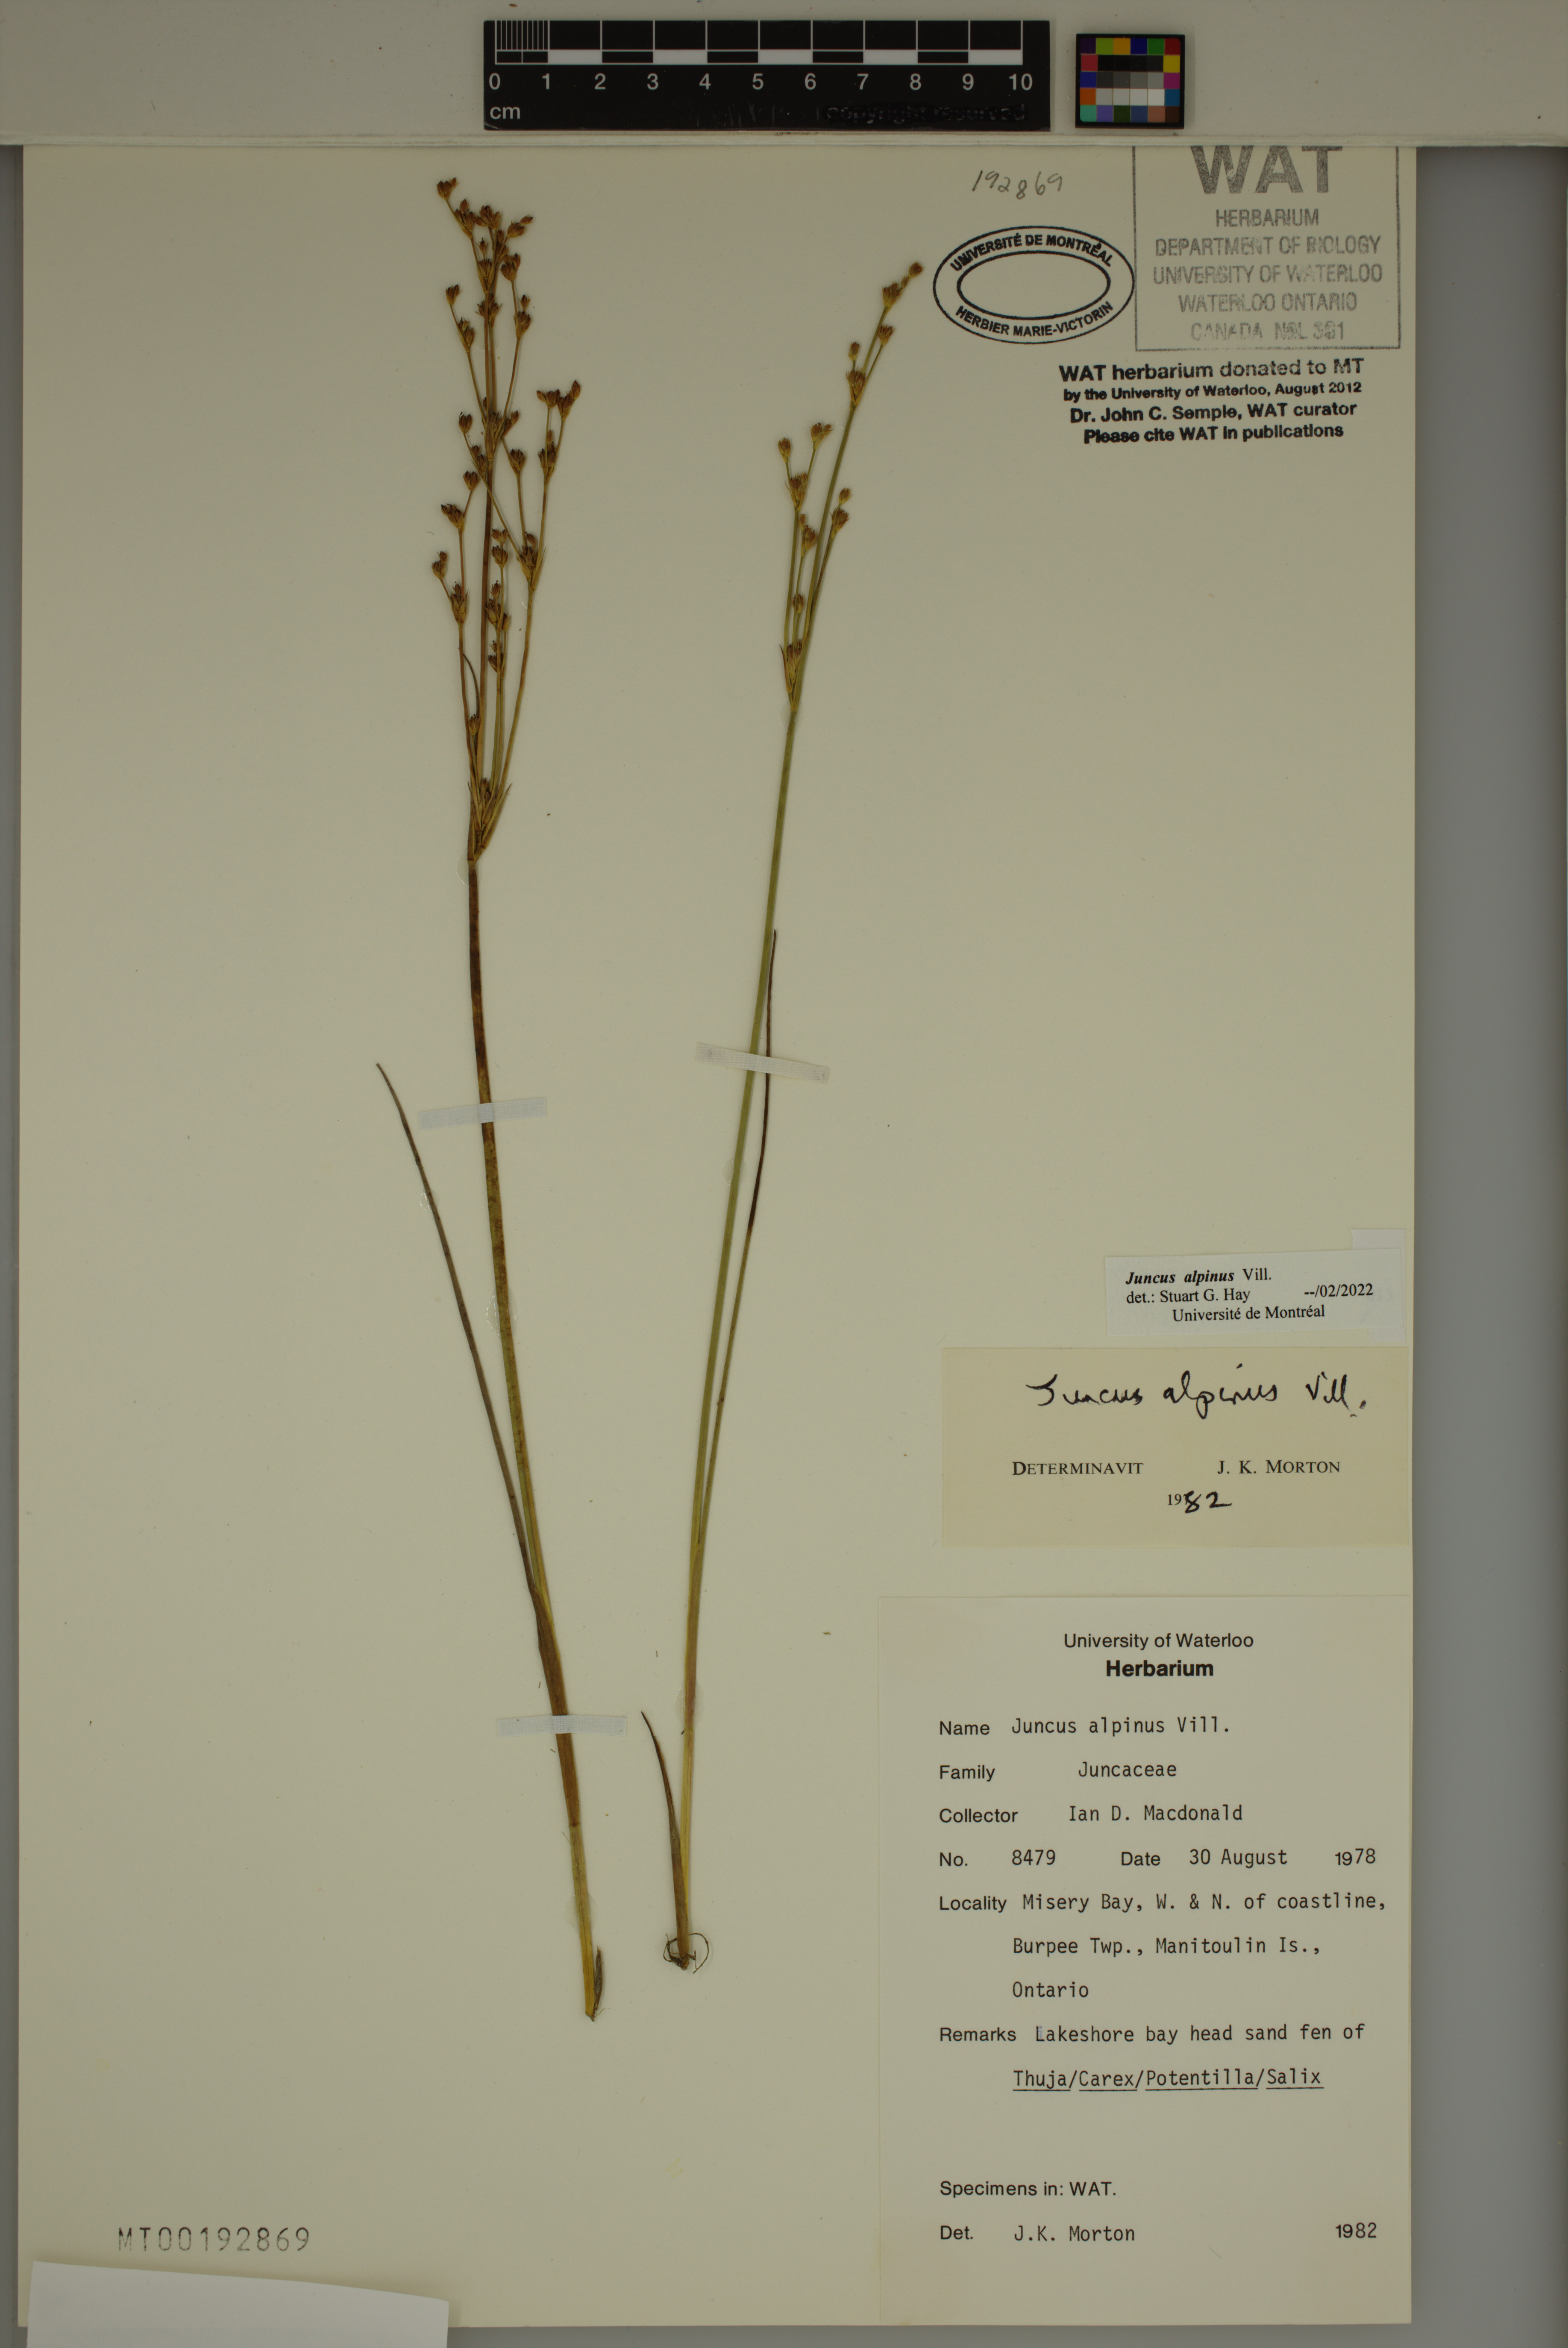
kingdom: Plantae
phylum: Tracheophyta
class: Liliopsida
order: Poales
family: Juncaceae
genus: Juncus
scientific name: Juncus alpinoarticulatus
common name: Alpine rush
